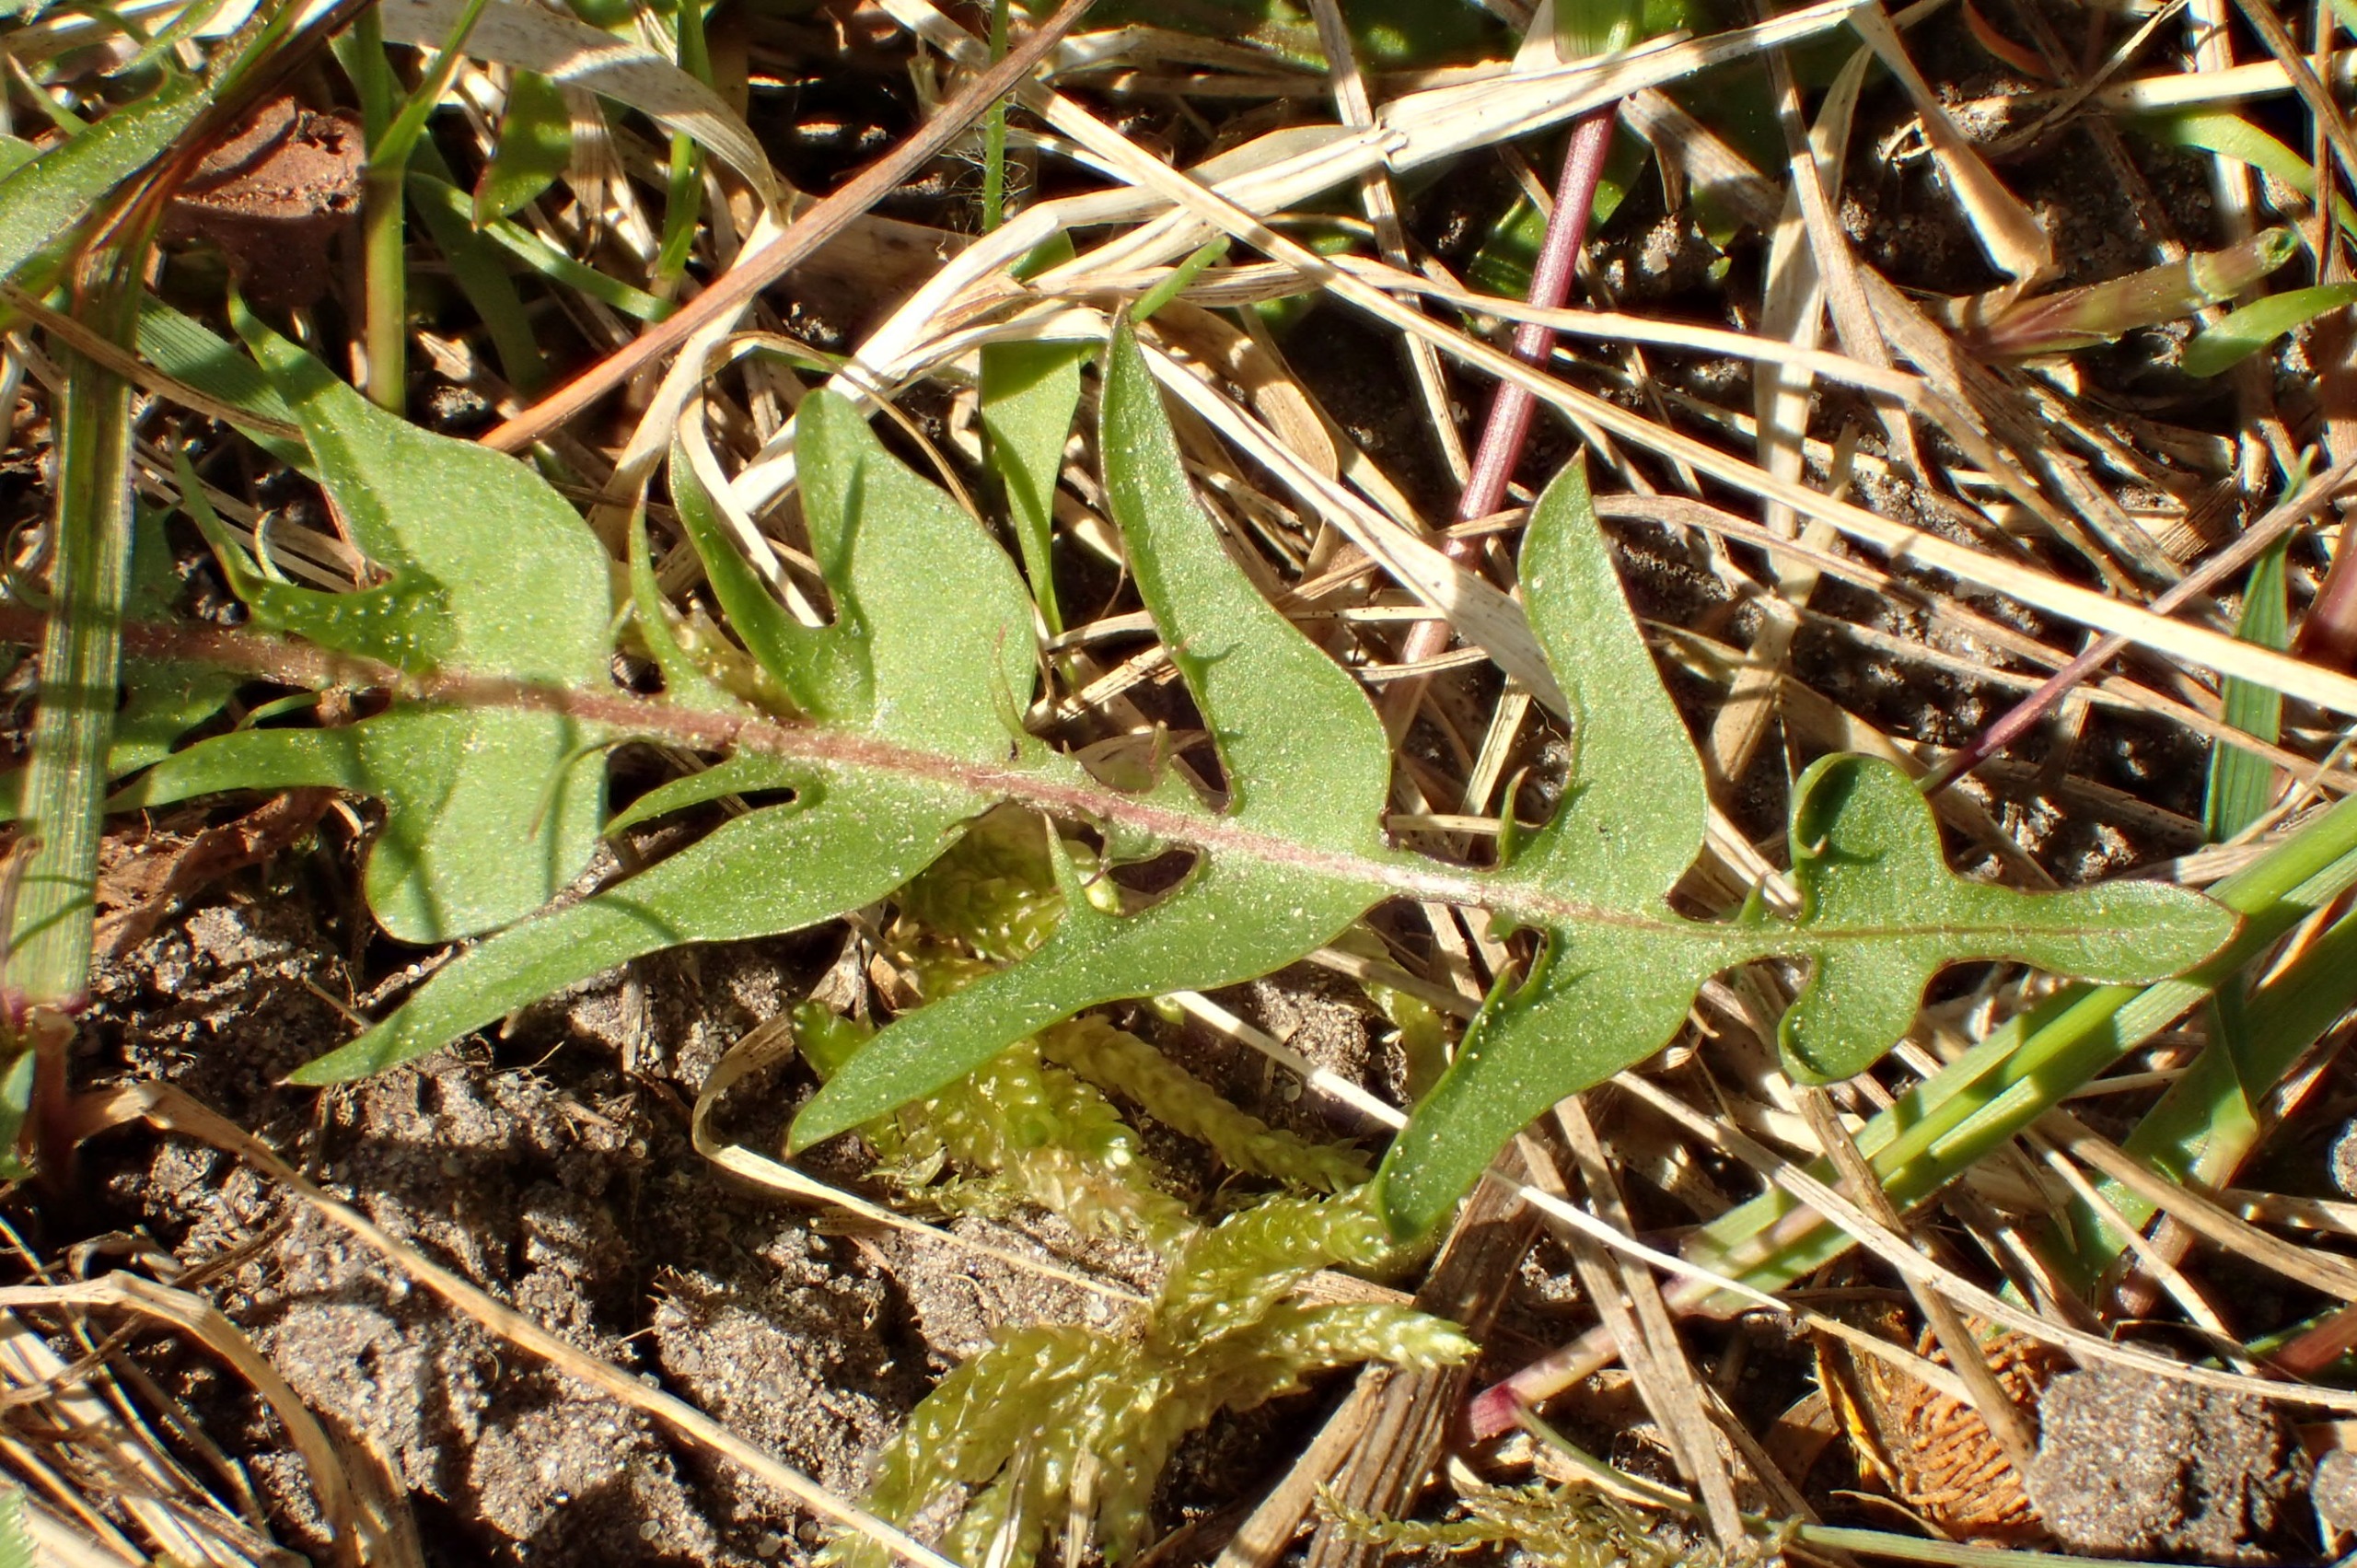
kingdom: Plantae
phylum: Tracheophyta
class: Magnoliopsida
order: Asterales
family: Asteraceae
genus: Taraxacum
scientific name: Taraxacum lacistophyllum
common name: Bakke-sandmælkebøtte
